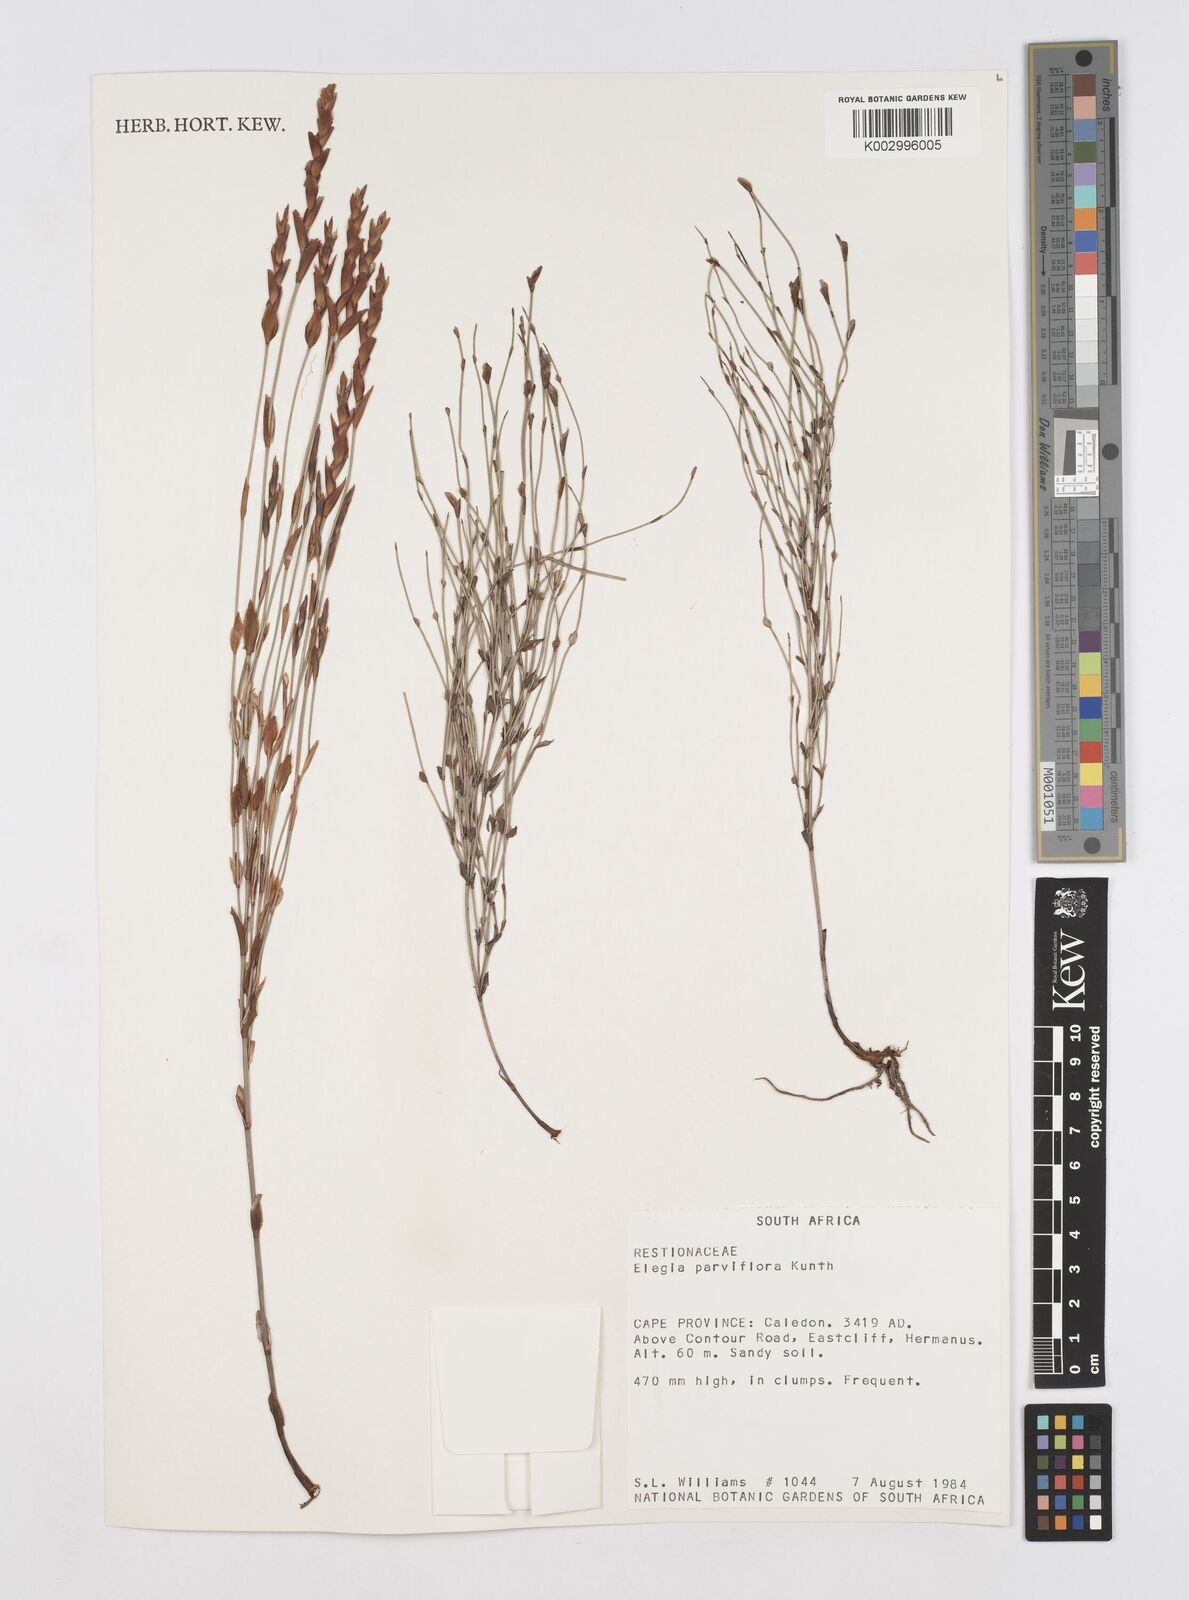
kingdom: Plantae
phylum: Tracheophyta
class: Liliopsida
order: Poales
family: Restionaceae
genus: Cannomois
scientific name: Cannomois parviflora
